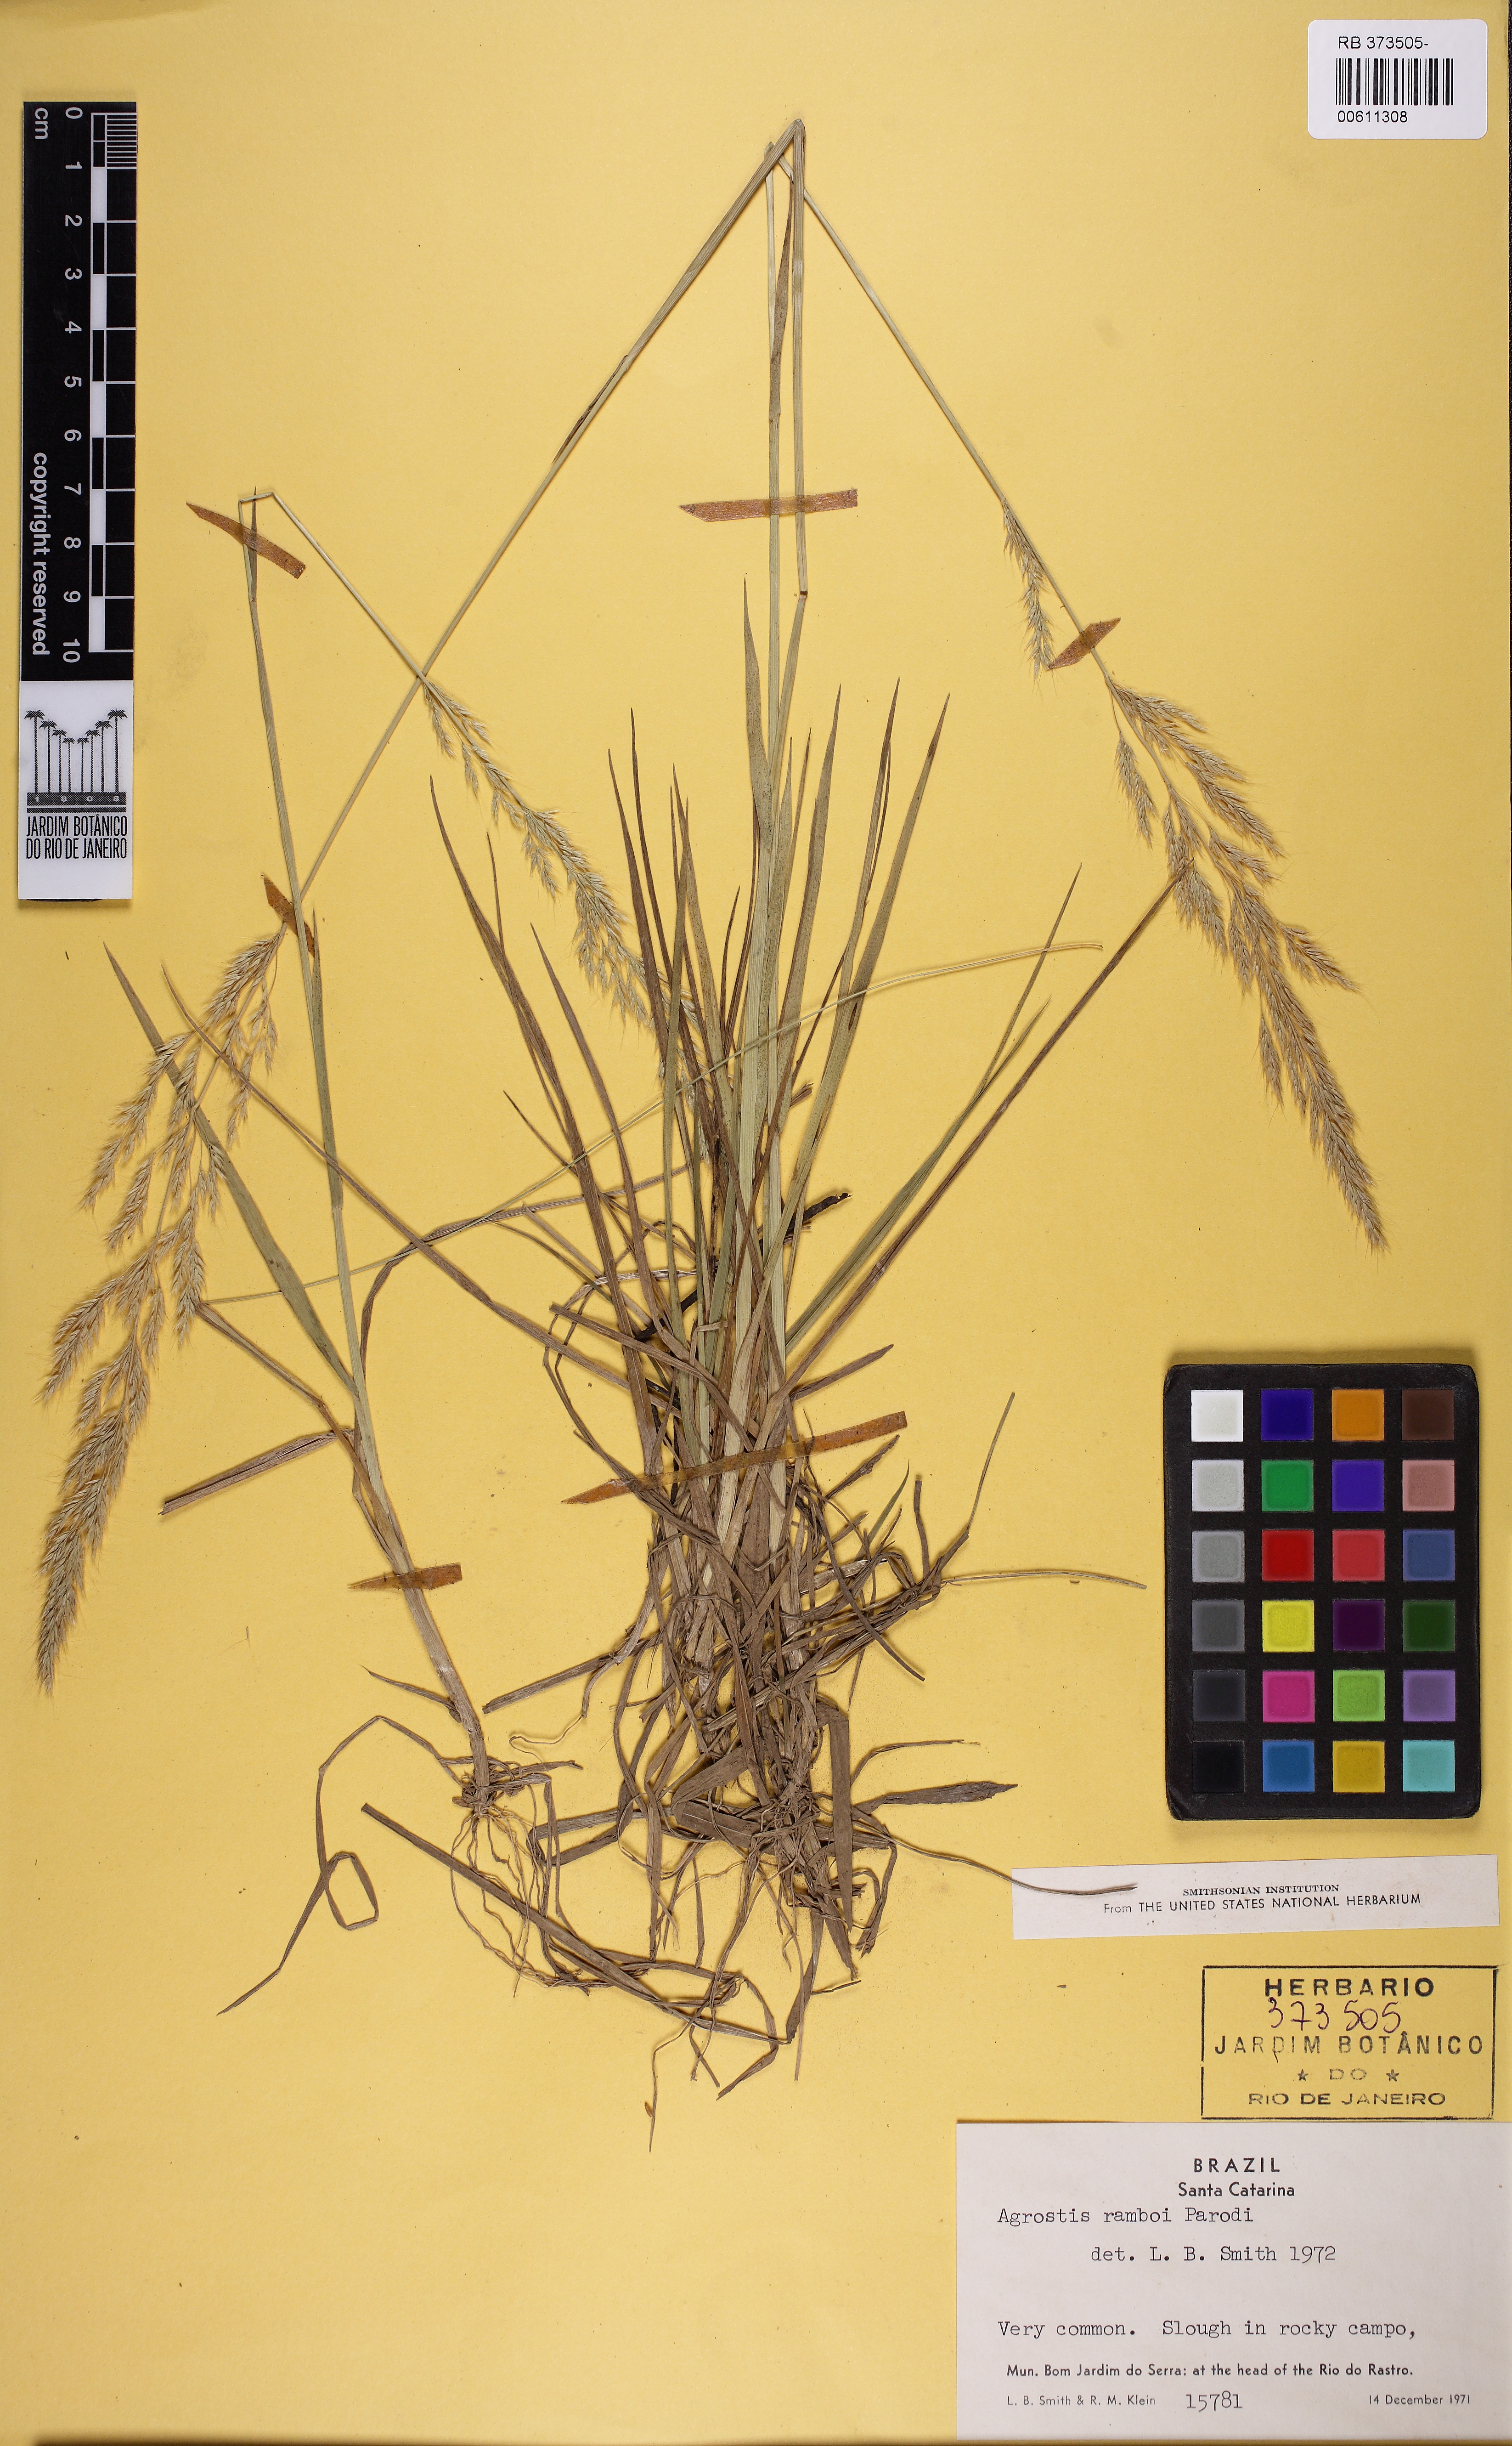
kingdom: Plantae
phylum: Tracheophyta
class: Liliopsida
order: Poales
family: Poaceae
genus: Agrostis
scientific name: Agrostis hygrometrica
